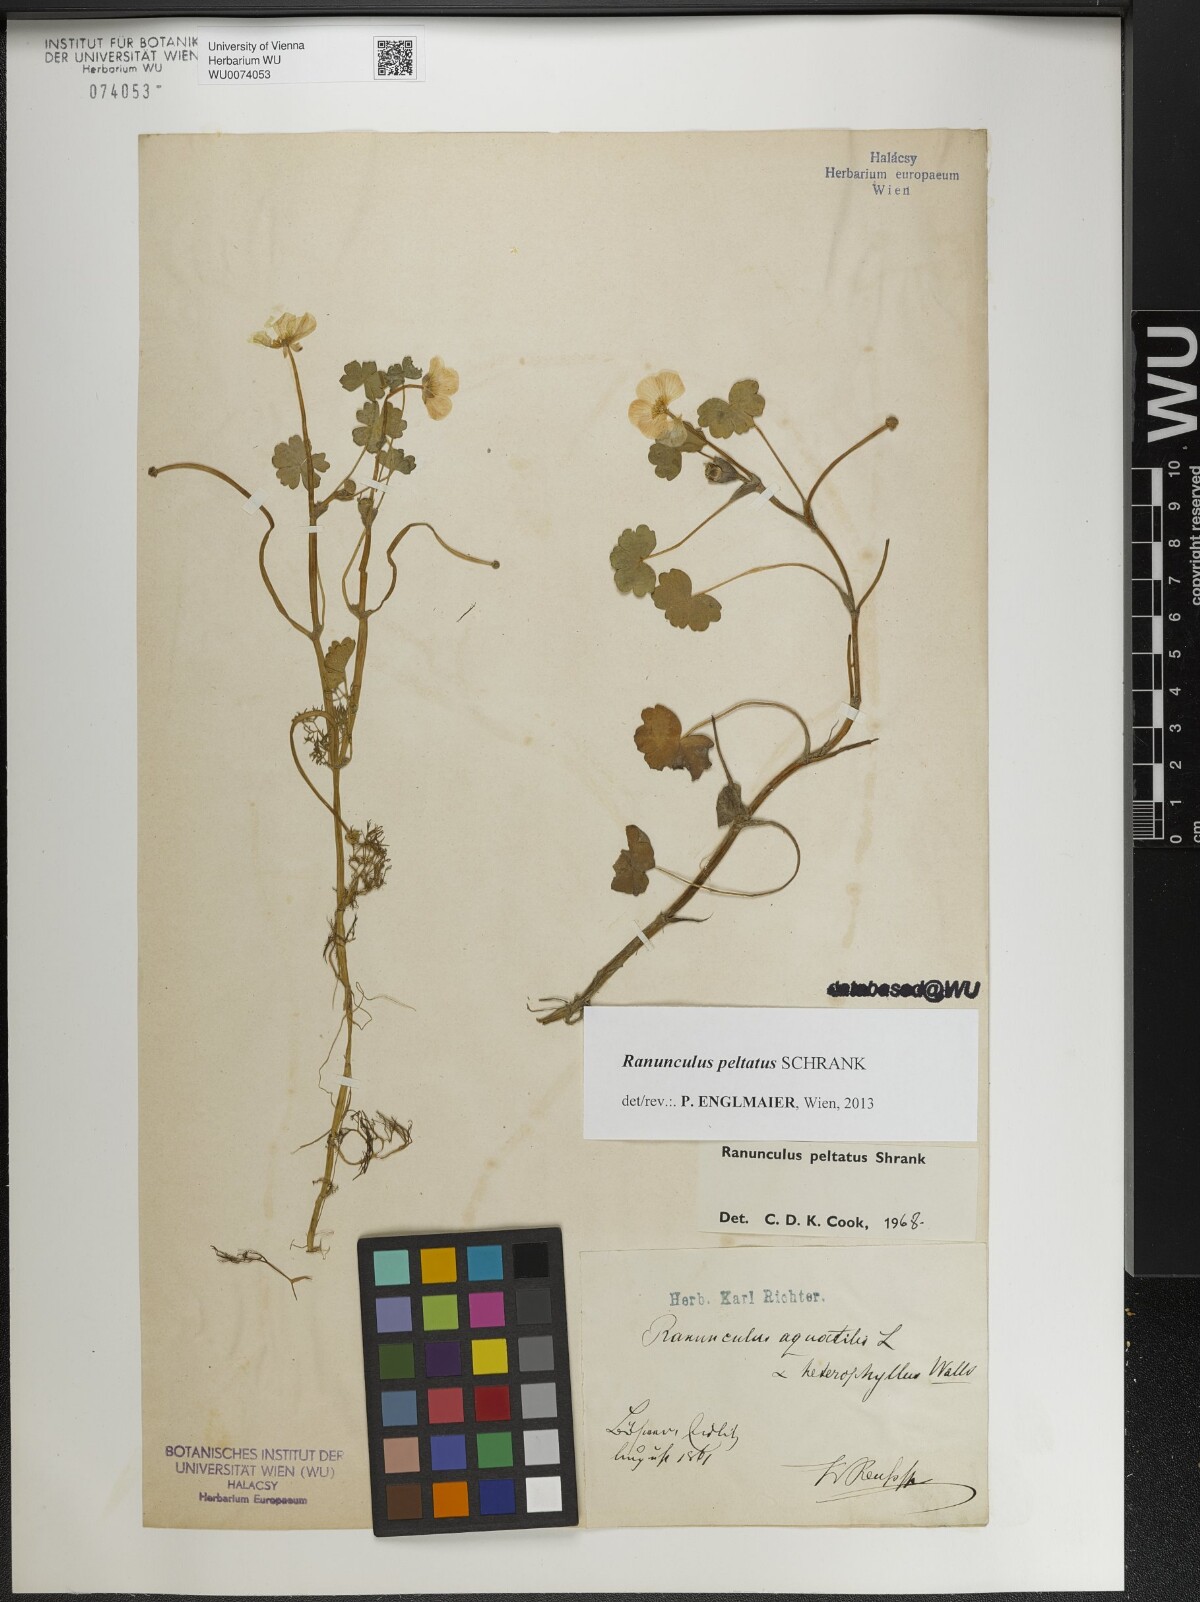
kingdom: Plantae
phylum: Tracheophyta
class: Magnoliopsida
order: Ranunculales
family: Ranunculaceae
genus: Ranunculus
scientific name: Ranunculus peltatus
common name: Pond water-crowfoot
